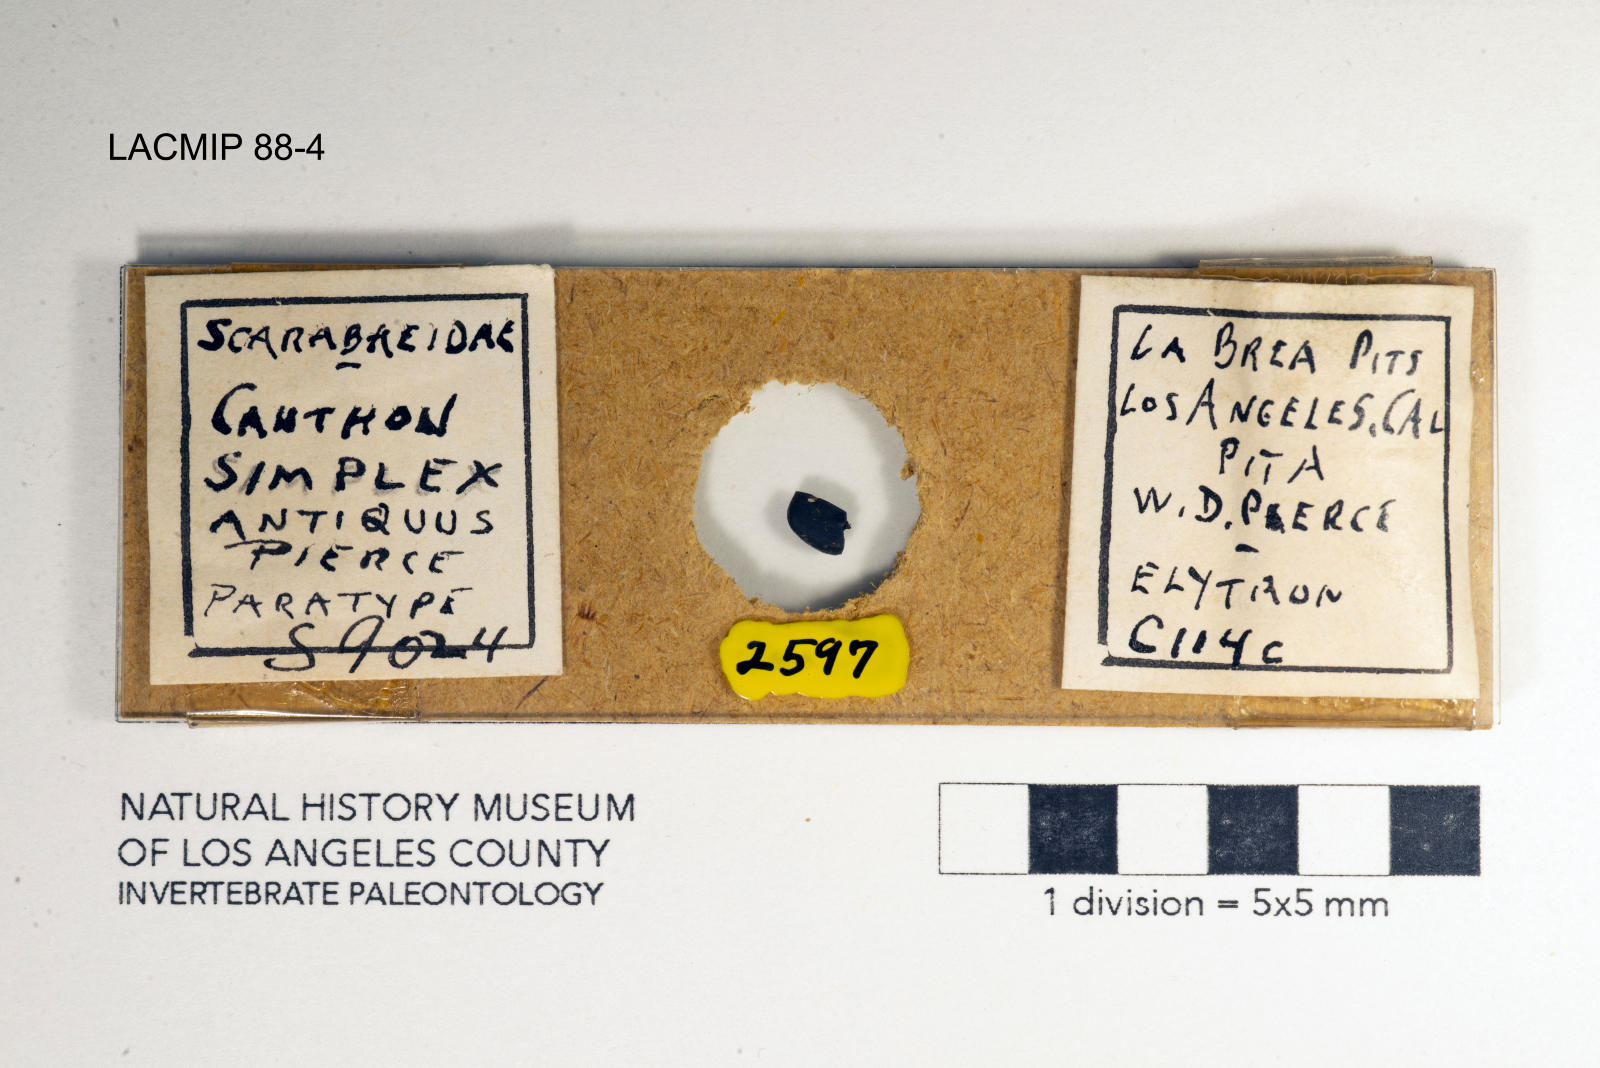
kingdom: Animalia
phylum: Arthropoda
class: Insecta
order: Coleoptera
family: Scarabaeidae
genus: Canthon
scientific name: Canthon simplex
